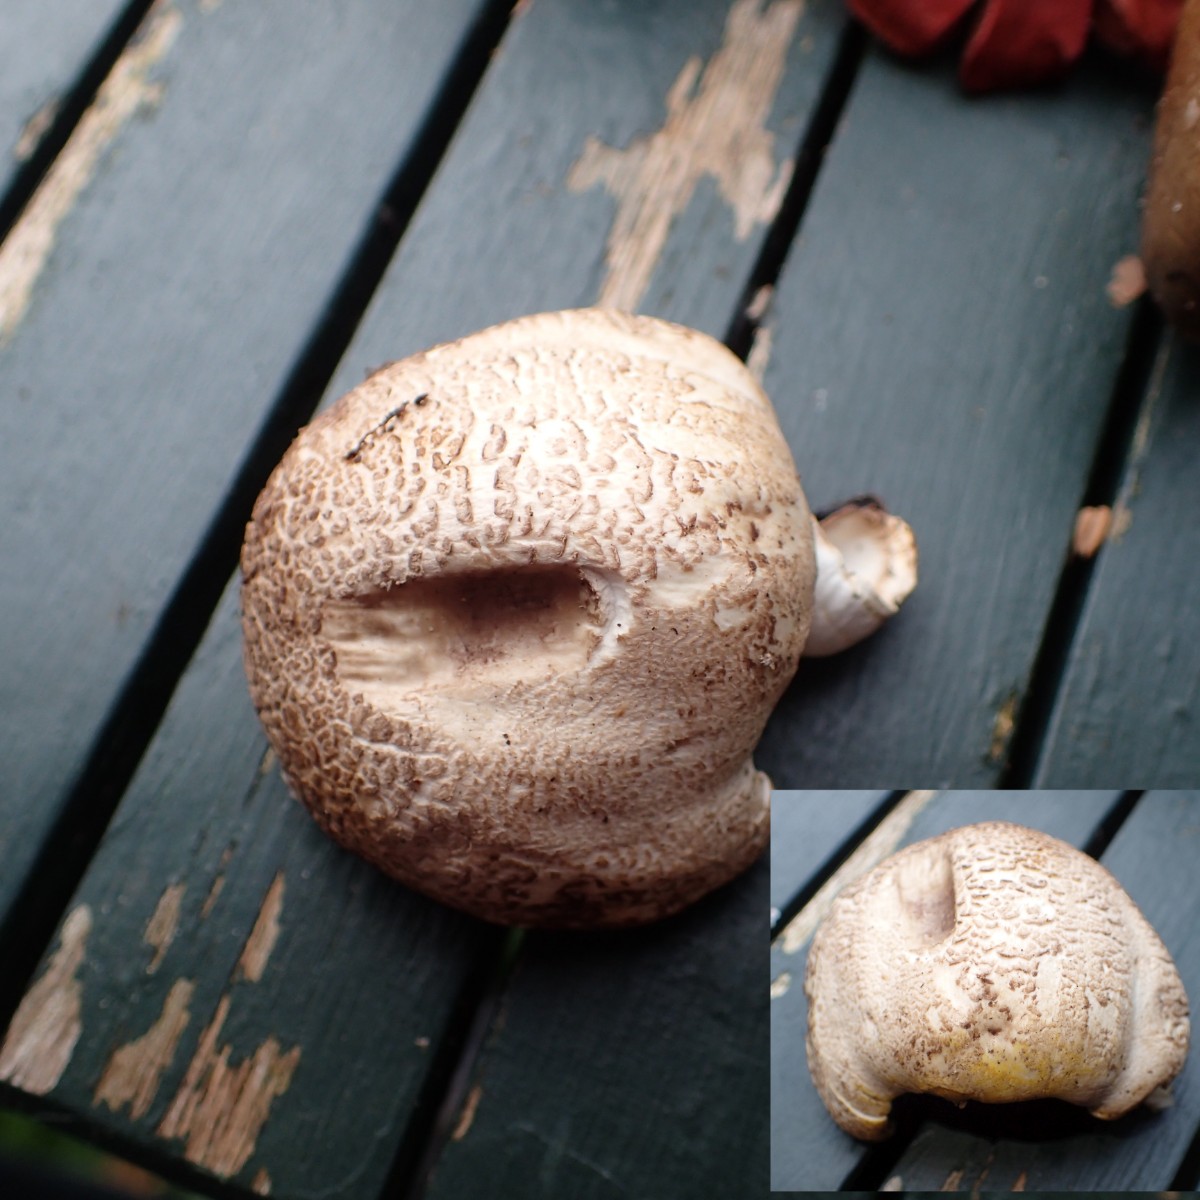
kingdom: Fungi
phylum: Basidiomycota
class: Agaricomycetes
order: Agaricales
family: Agaricaceae
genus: Agaricus
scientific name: Agaricus
